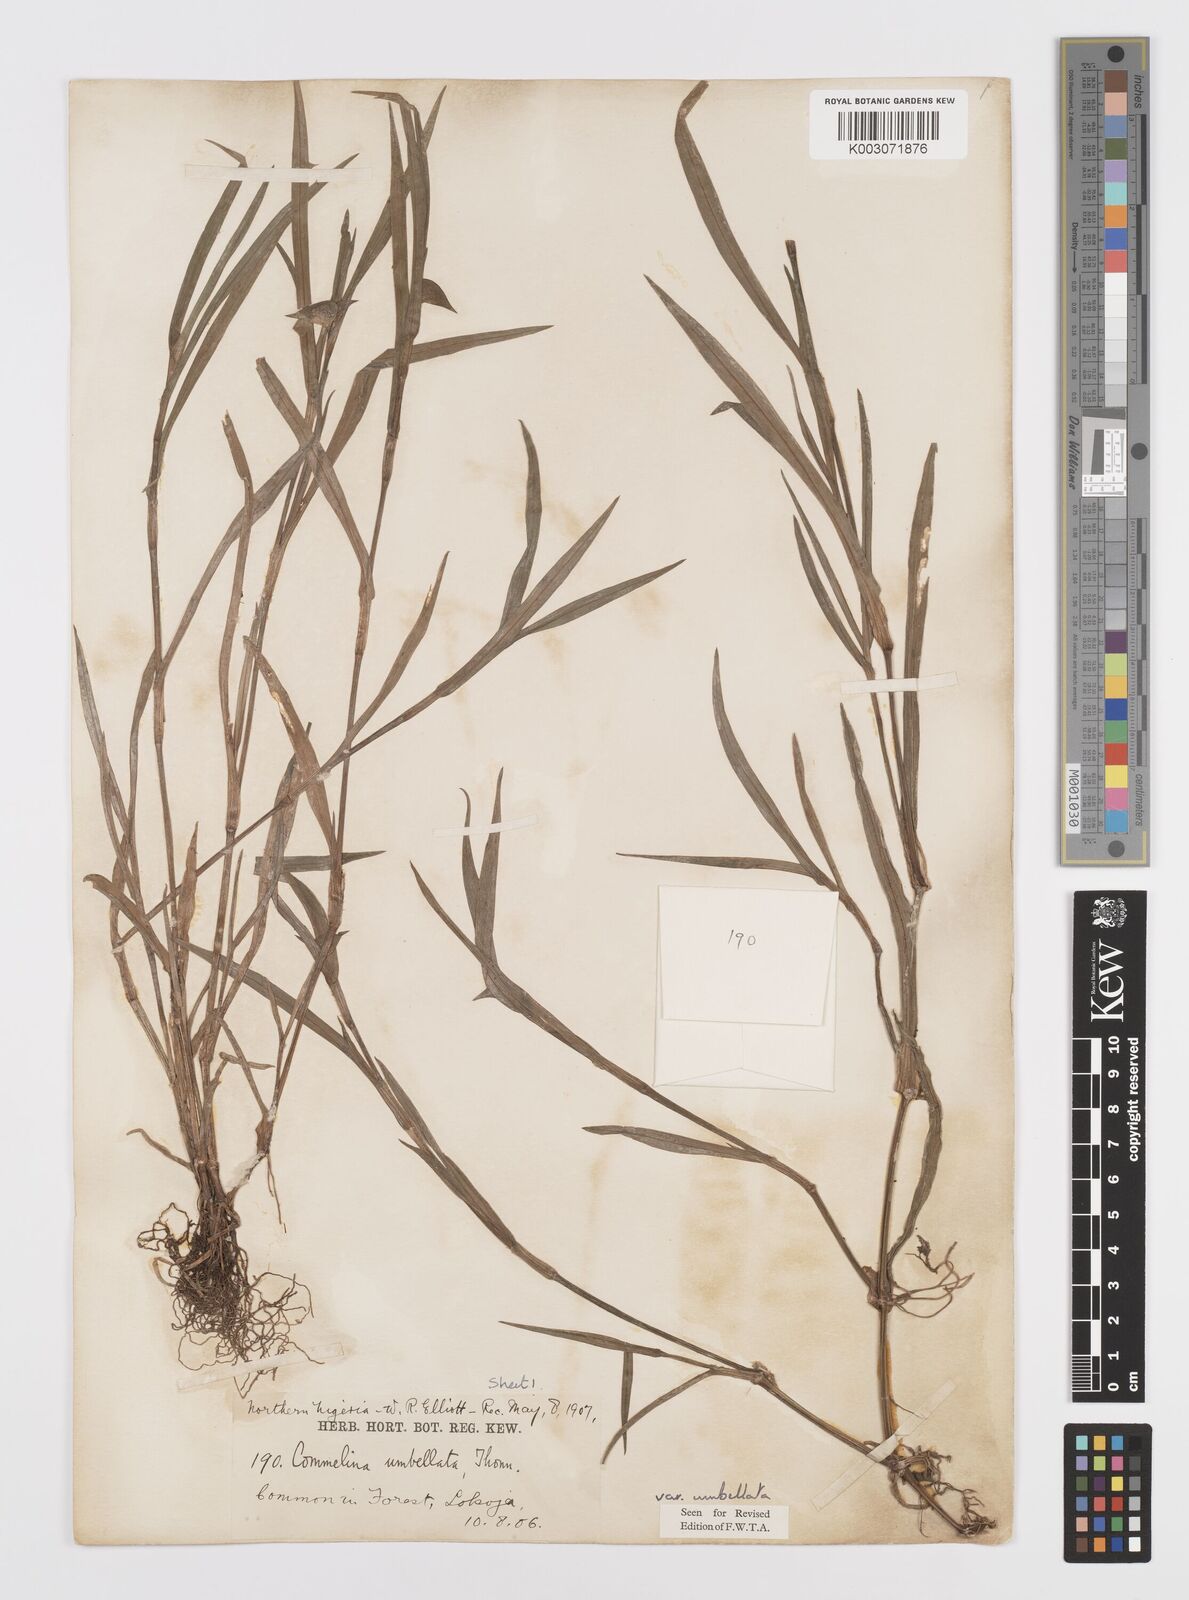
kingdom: Plantae
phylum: Tracheophyta
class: Liliopsida
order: Commelinales
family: Commelinaceae
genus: Commelina
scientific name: Commelina
